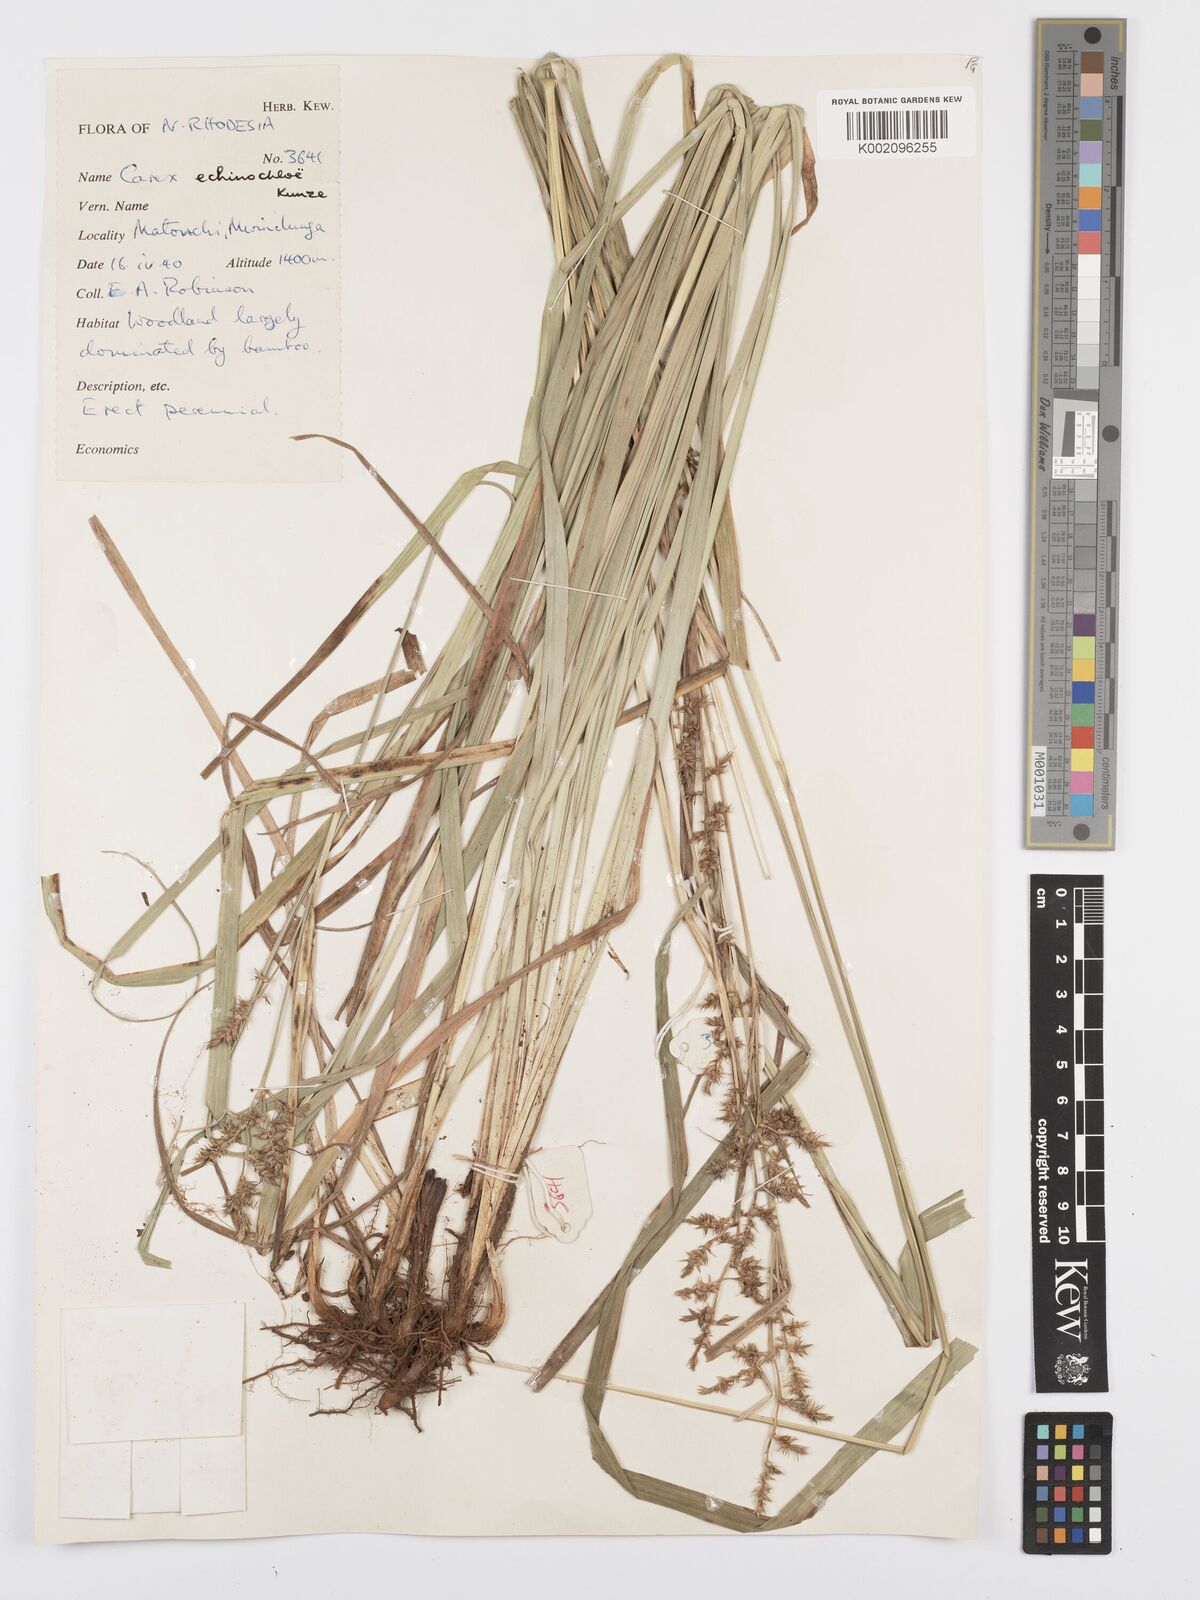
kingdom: Plantae
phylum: Tracheophyta
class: Liliopsida
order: Poales
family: Cyperaceae
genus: Carex
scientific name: Carex echinochloe
